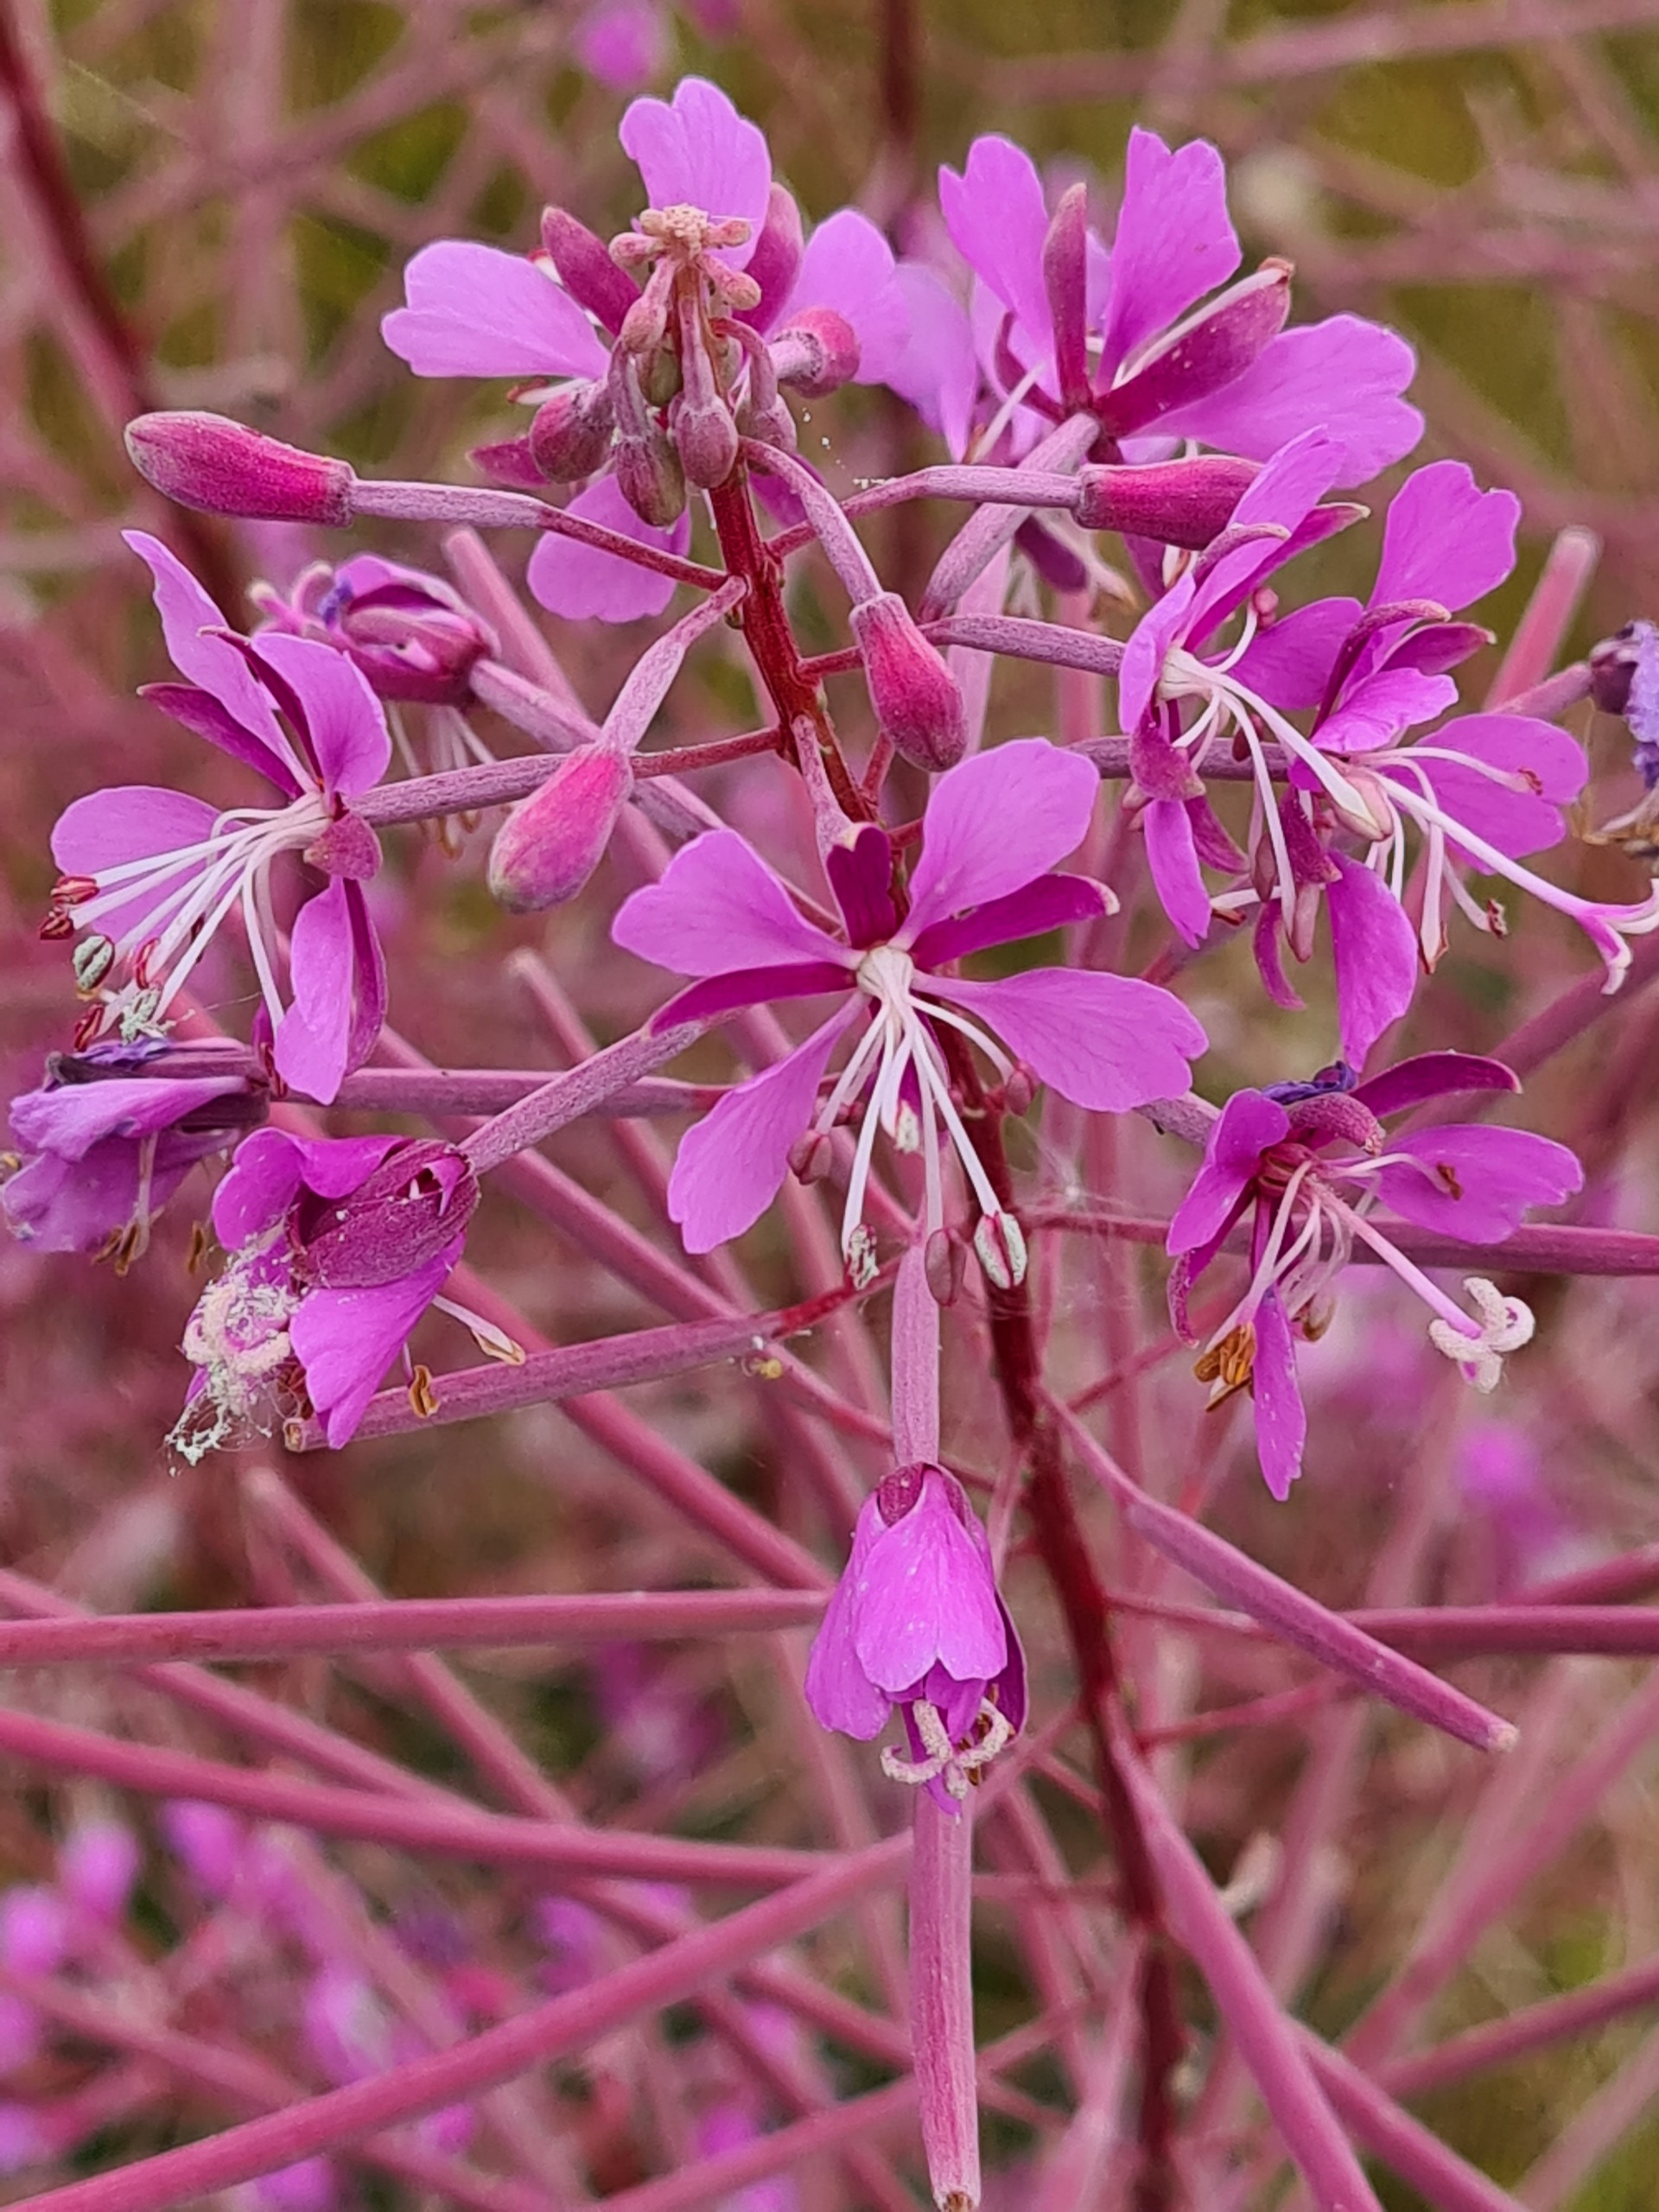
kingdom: Plantae
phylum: Tracheophyta
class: Magnoliopsida
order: Myrtales
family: Onagraceae
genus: Chamaenerion
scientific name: Chamaenerion angustifolium
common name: Gederams
